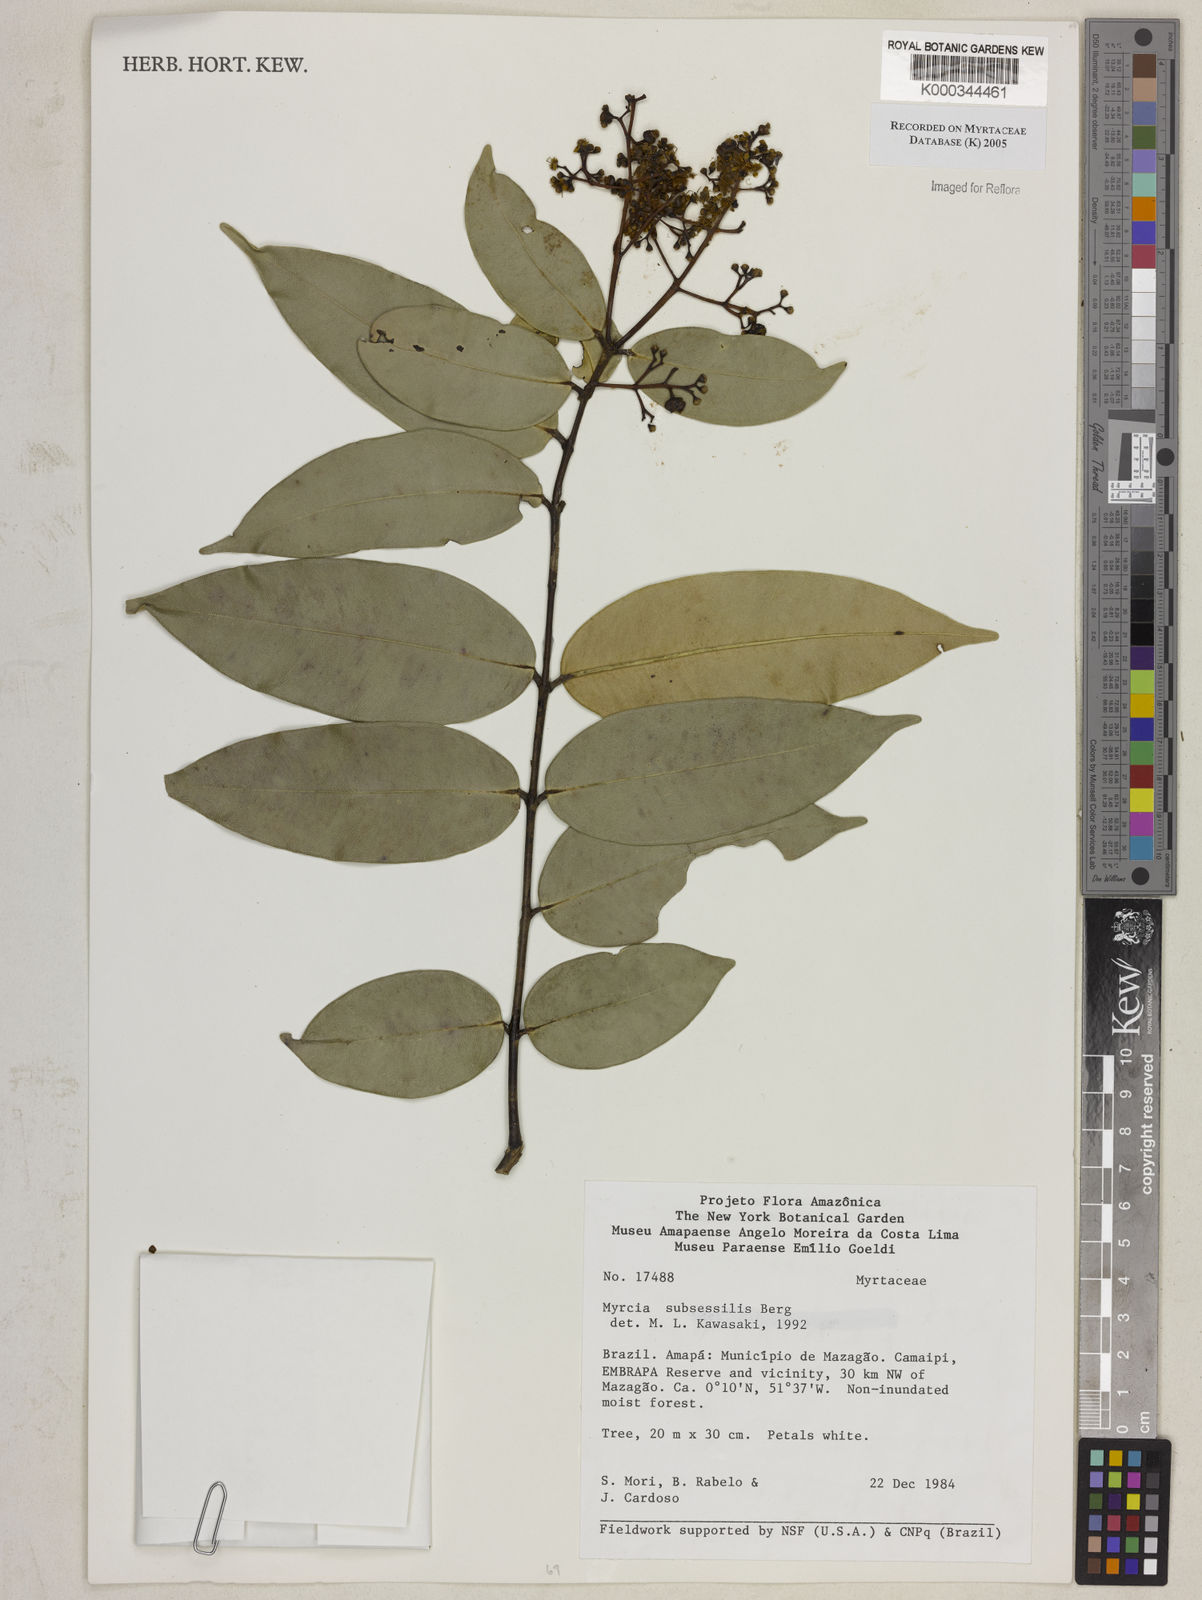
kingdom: Plantae
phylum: Tracheophyta
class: Magnoliopsida
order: Myrtales
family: Myrtaceae
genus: Myrcia
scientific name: Myrcia subsessilis
